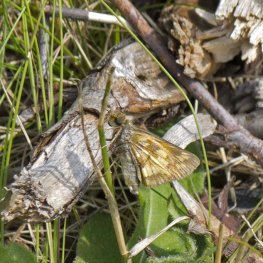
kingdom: Animalia
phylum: Arthropoda
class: Insecta
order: Lepidoptera
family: Hesperiidae
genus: Polites
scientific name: Polites coras
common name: Peck's Skipper
